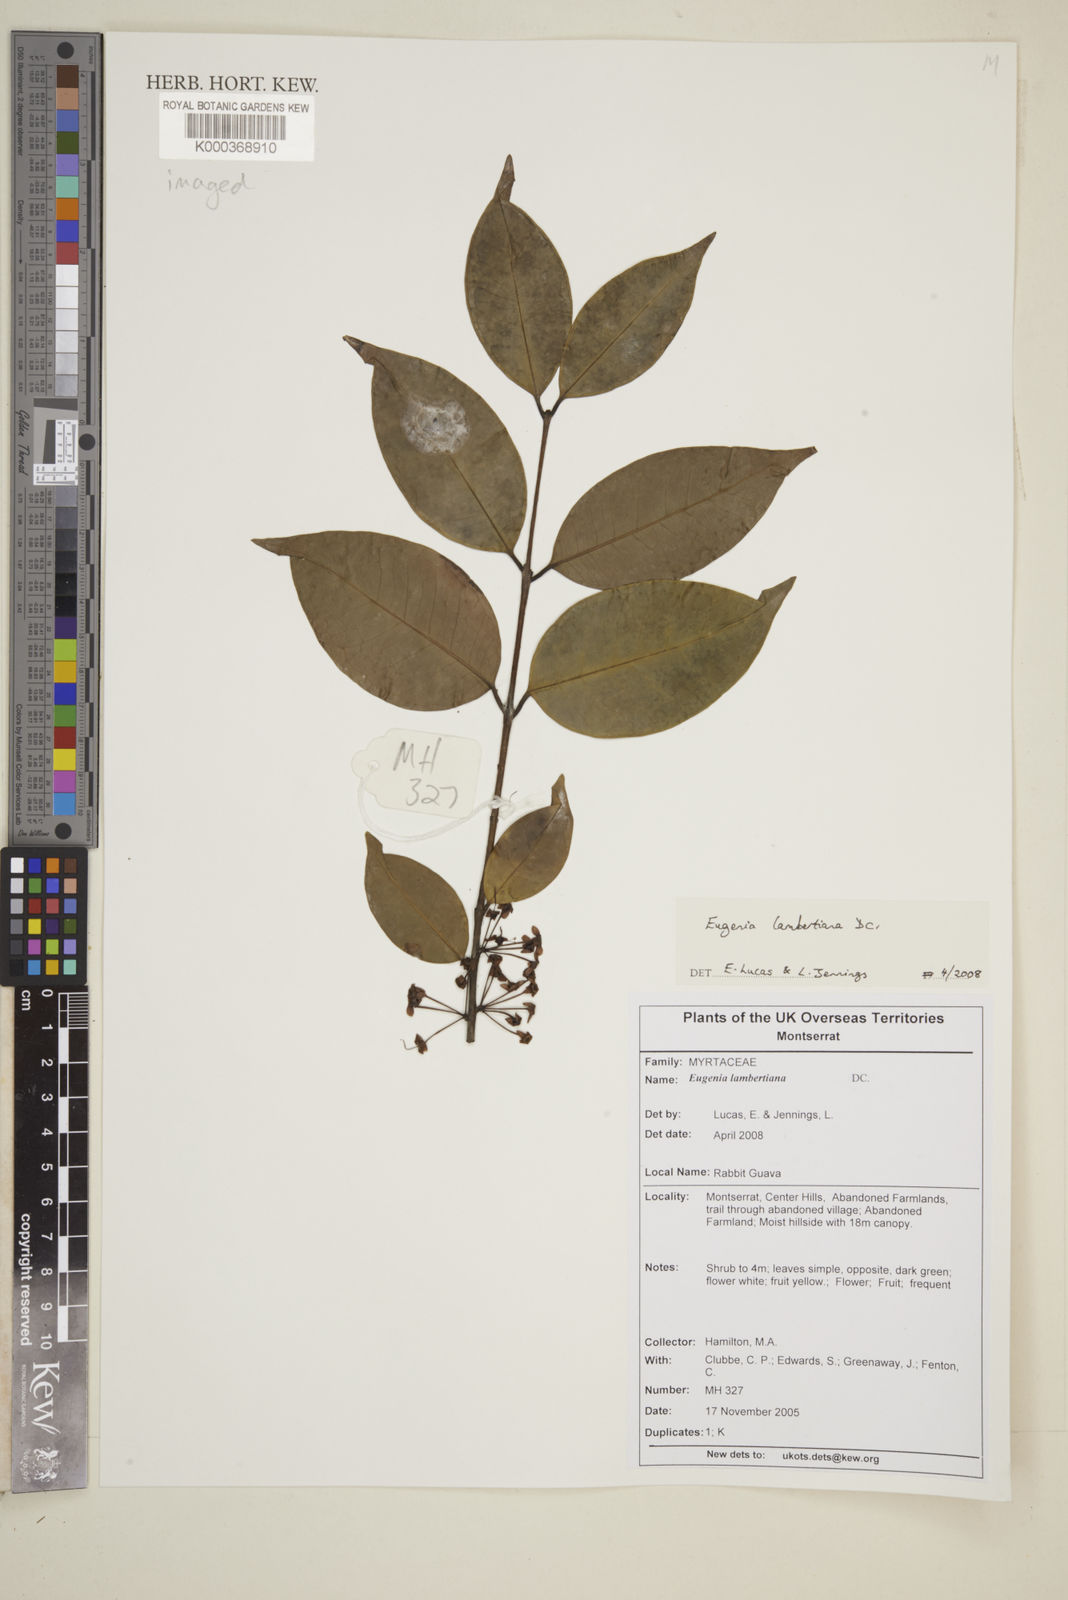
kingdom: Plantae
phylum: Tracheophyta
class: Magnoliopsida
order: Myrtales
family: Myrtaceae
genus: Eugenia
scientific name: Eugenia ligustrina
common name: Privet stopper
